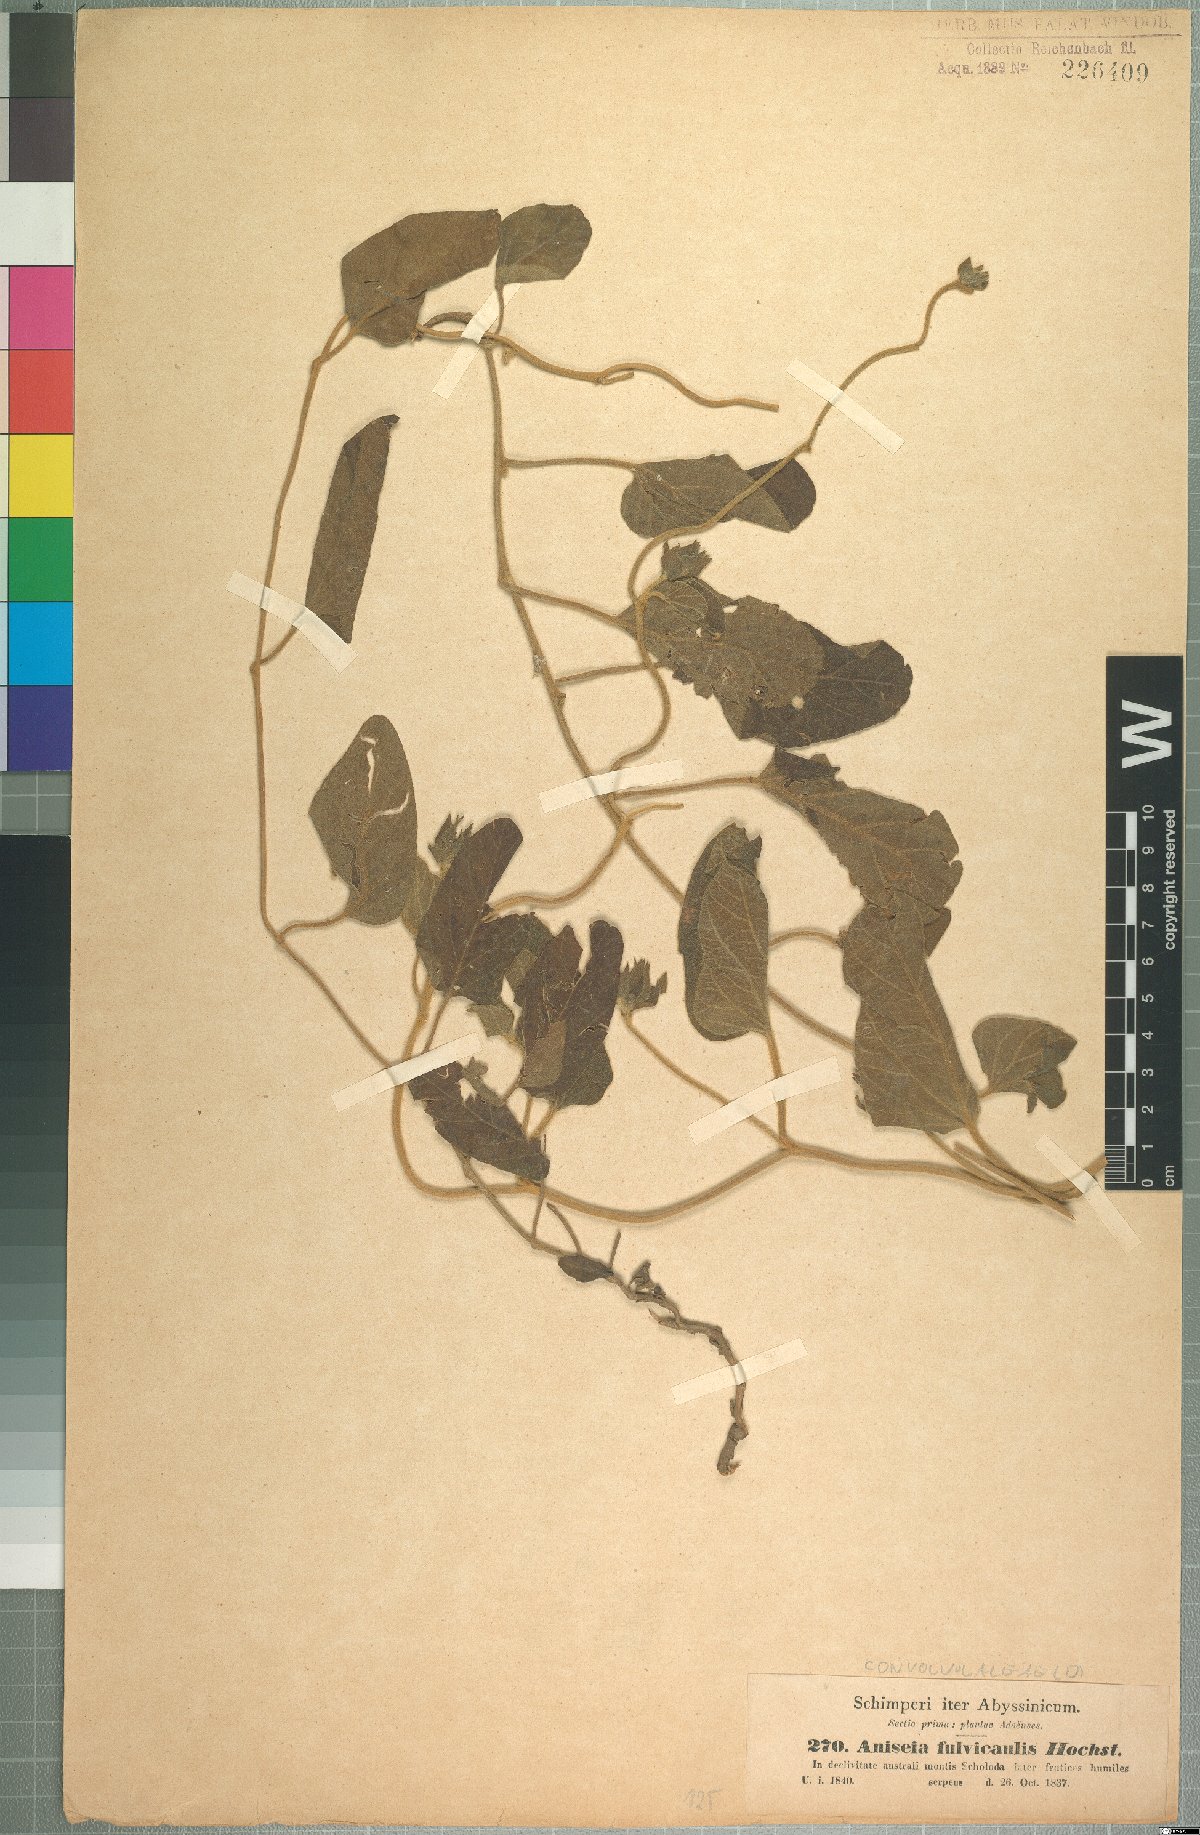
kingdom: Plantae
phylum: Tracheophyta
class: Magnoliopsida
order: Solanales
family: Convolvulaceae
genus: Ipomoea
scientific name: Ipomoea fulvicaulis
